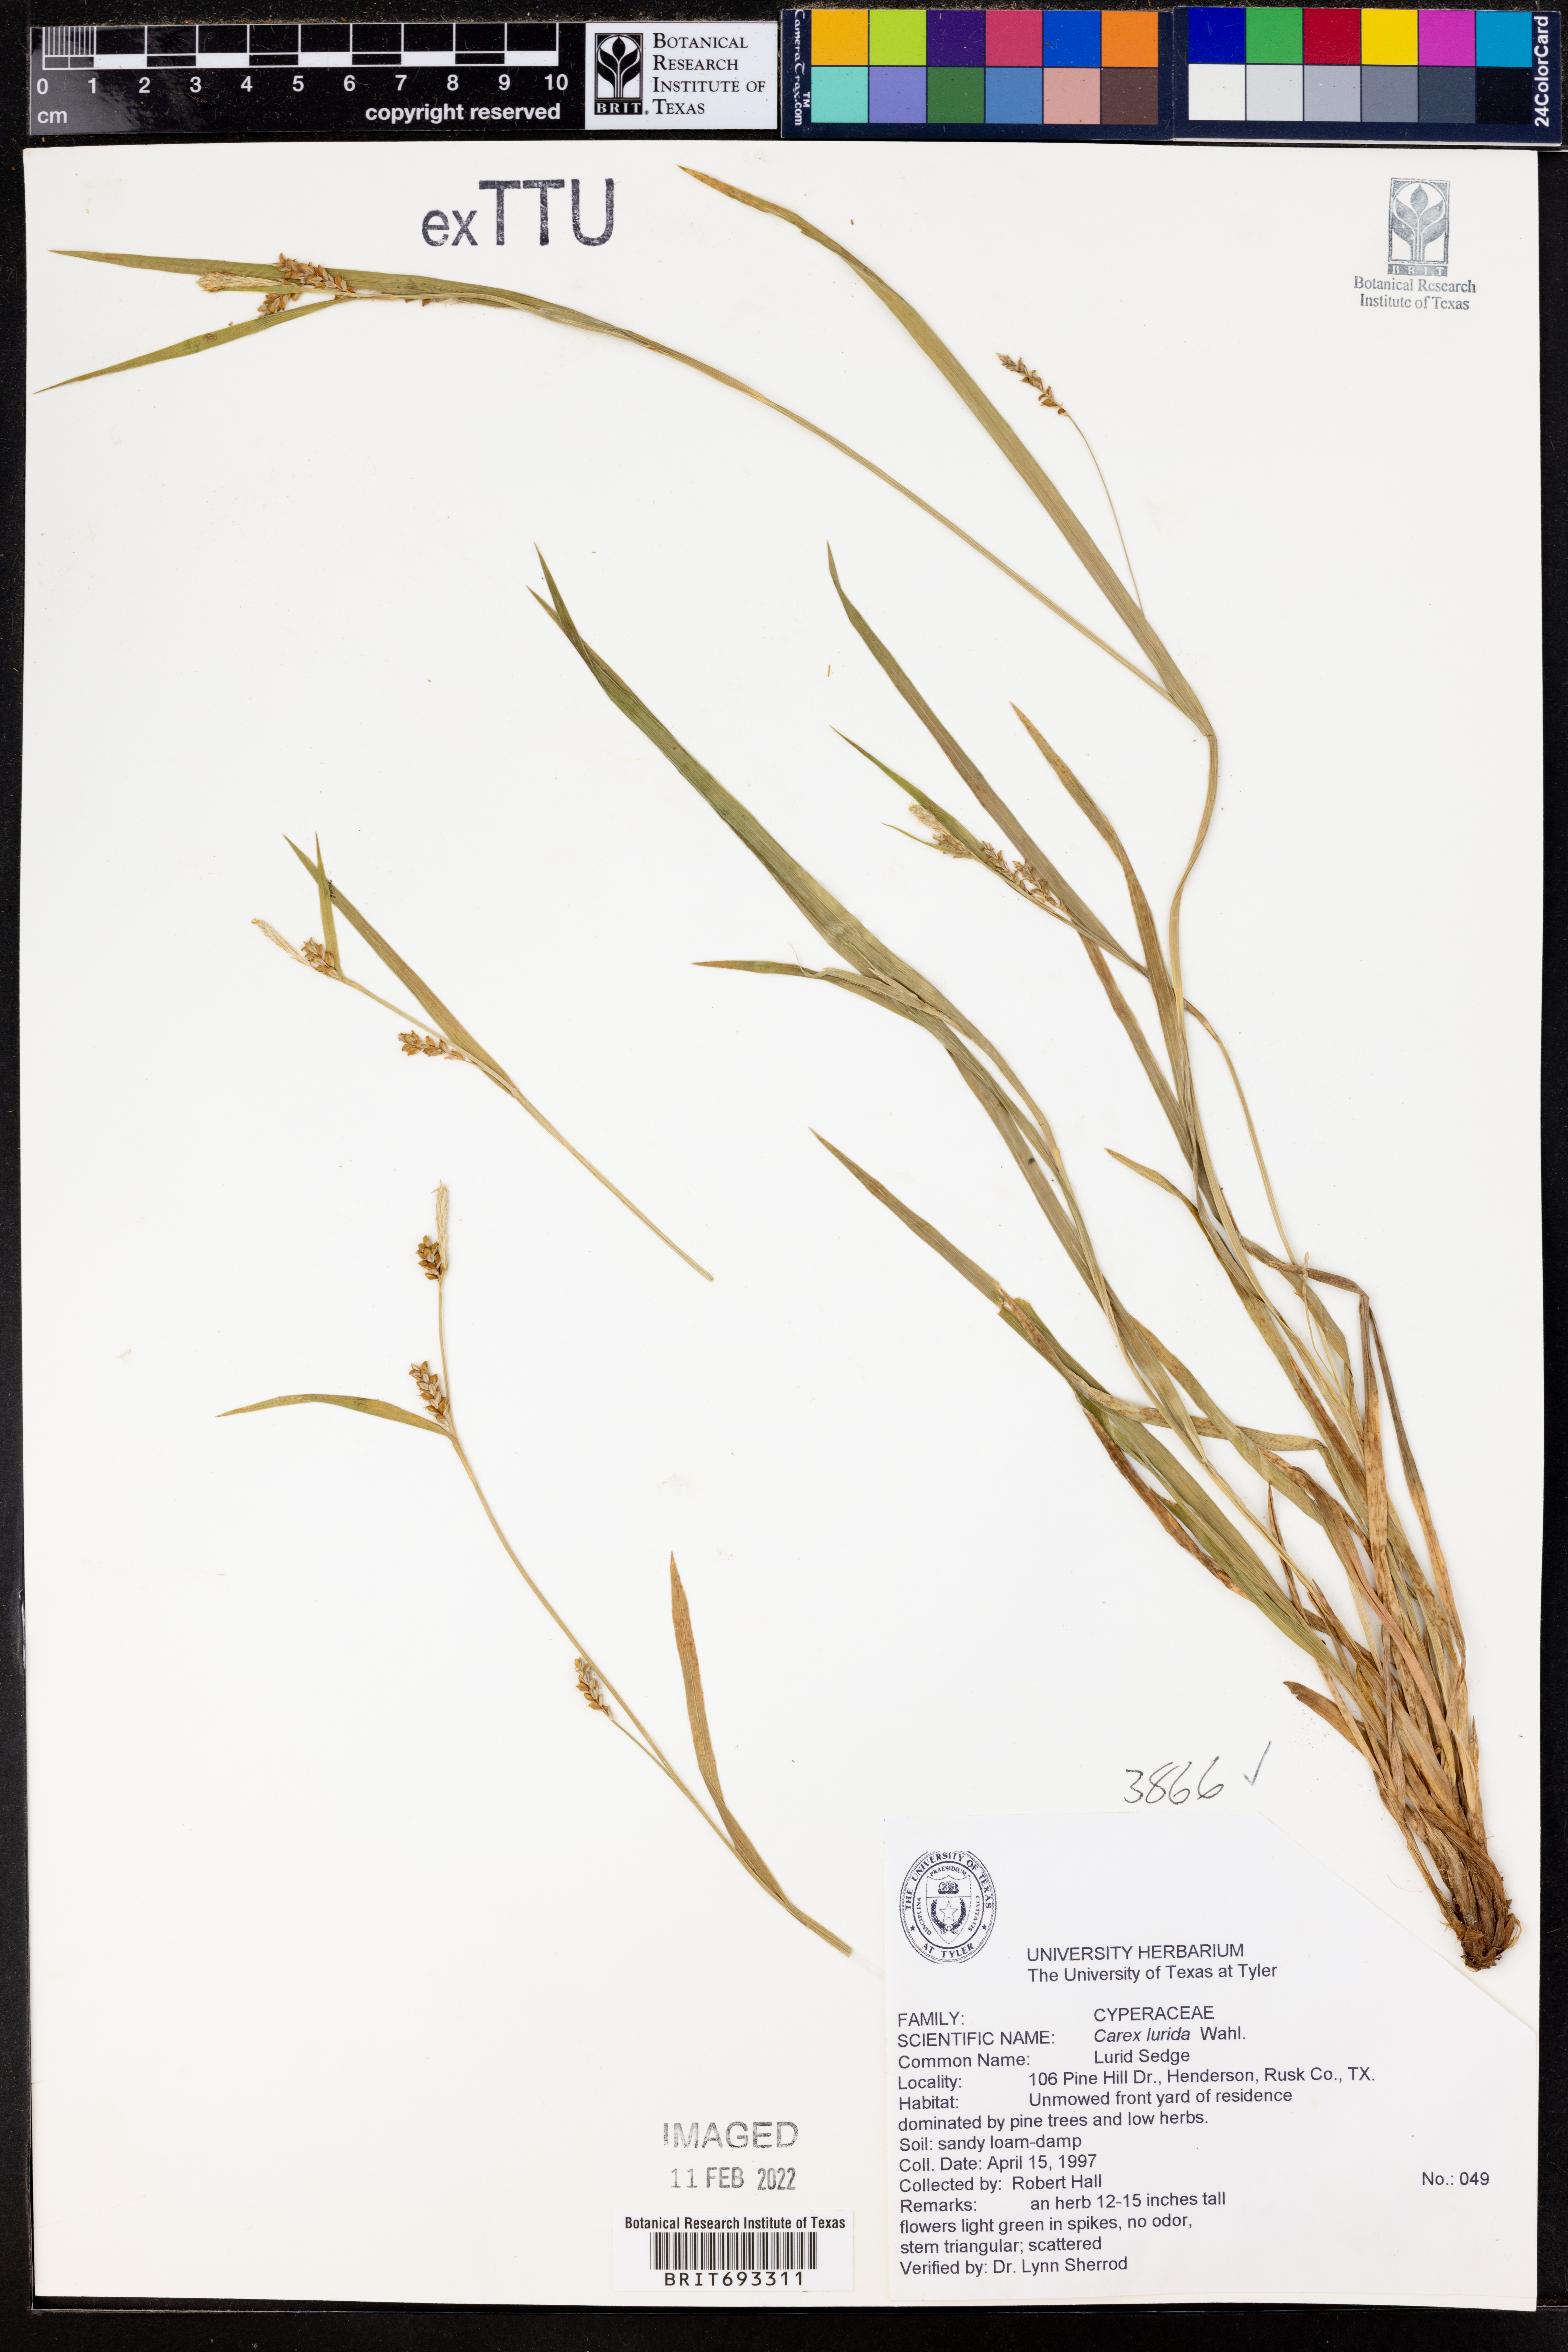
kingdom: Plantae
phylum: Tracheophyta
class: Liliopsida
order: Poales
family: Cyperaceae
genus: Carex
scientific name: Carex lurida
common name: Sallow sedge
